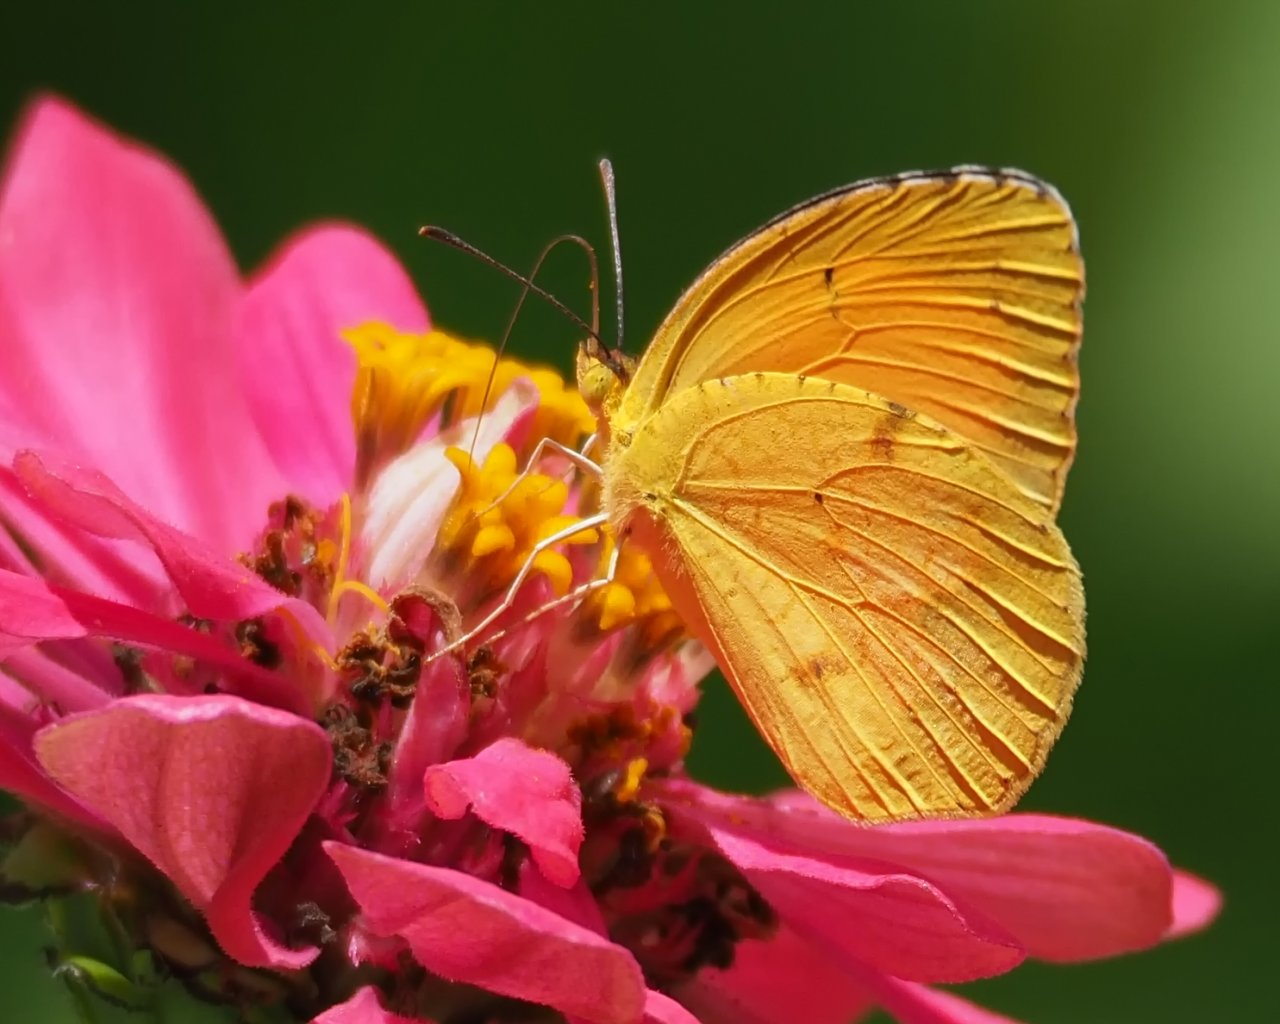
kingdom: Animalia
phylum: Arthropoda
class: Insecta
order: Lepidoptera
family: Pieridae
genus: Abaeis
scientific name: Abaeis nicippe
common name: Sleepy Orange
